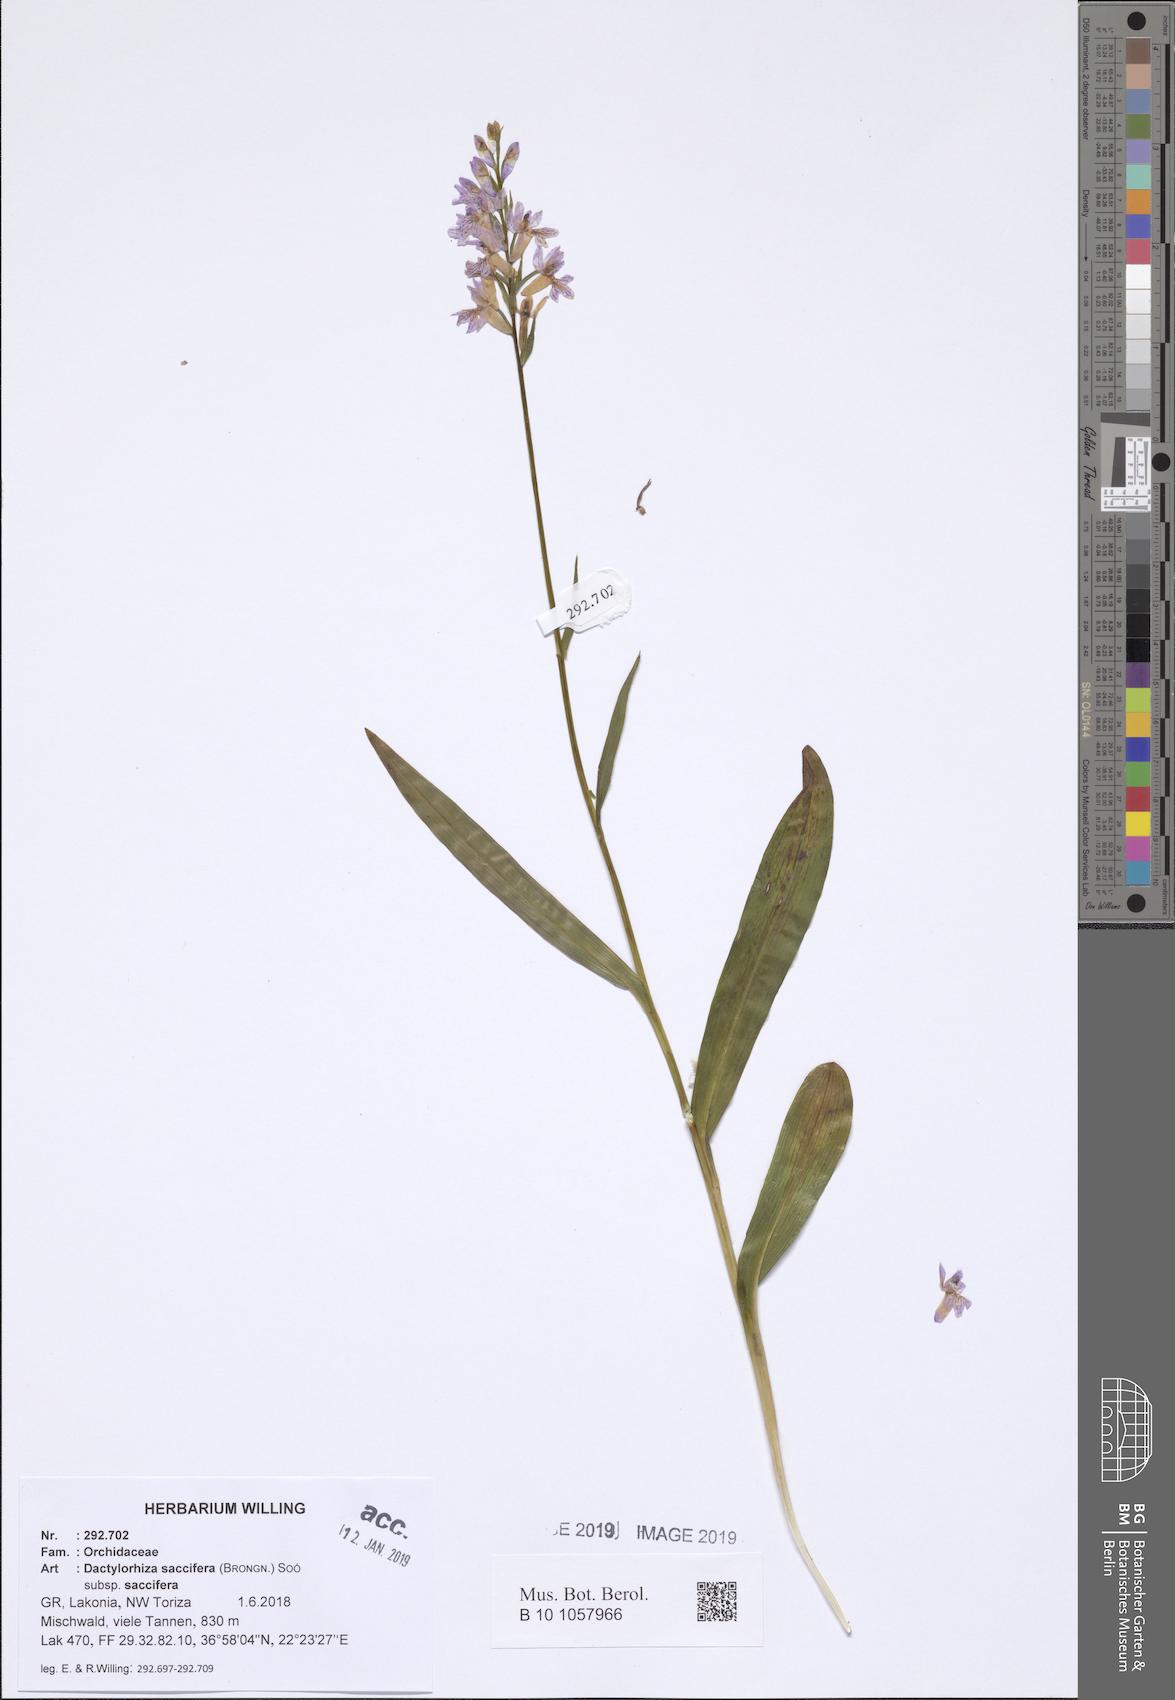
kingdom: Plantae
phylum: Tracheophyta
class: Liliopsida
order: Asparagales
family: Orchidaceae
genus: Dactylorhiza
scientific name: Dactylorhiza maculata
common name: Heath spotted-orchid
